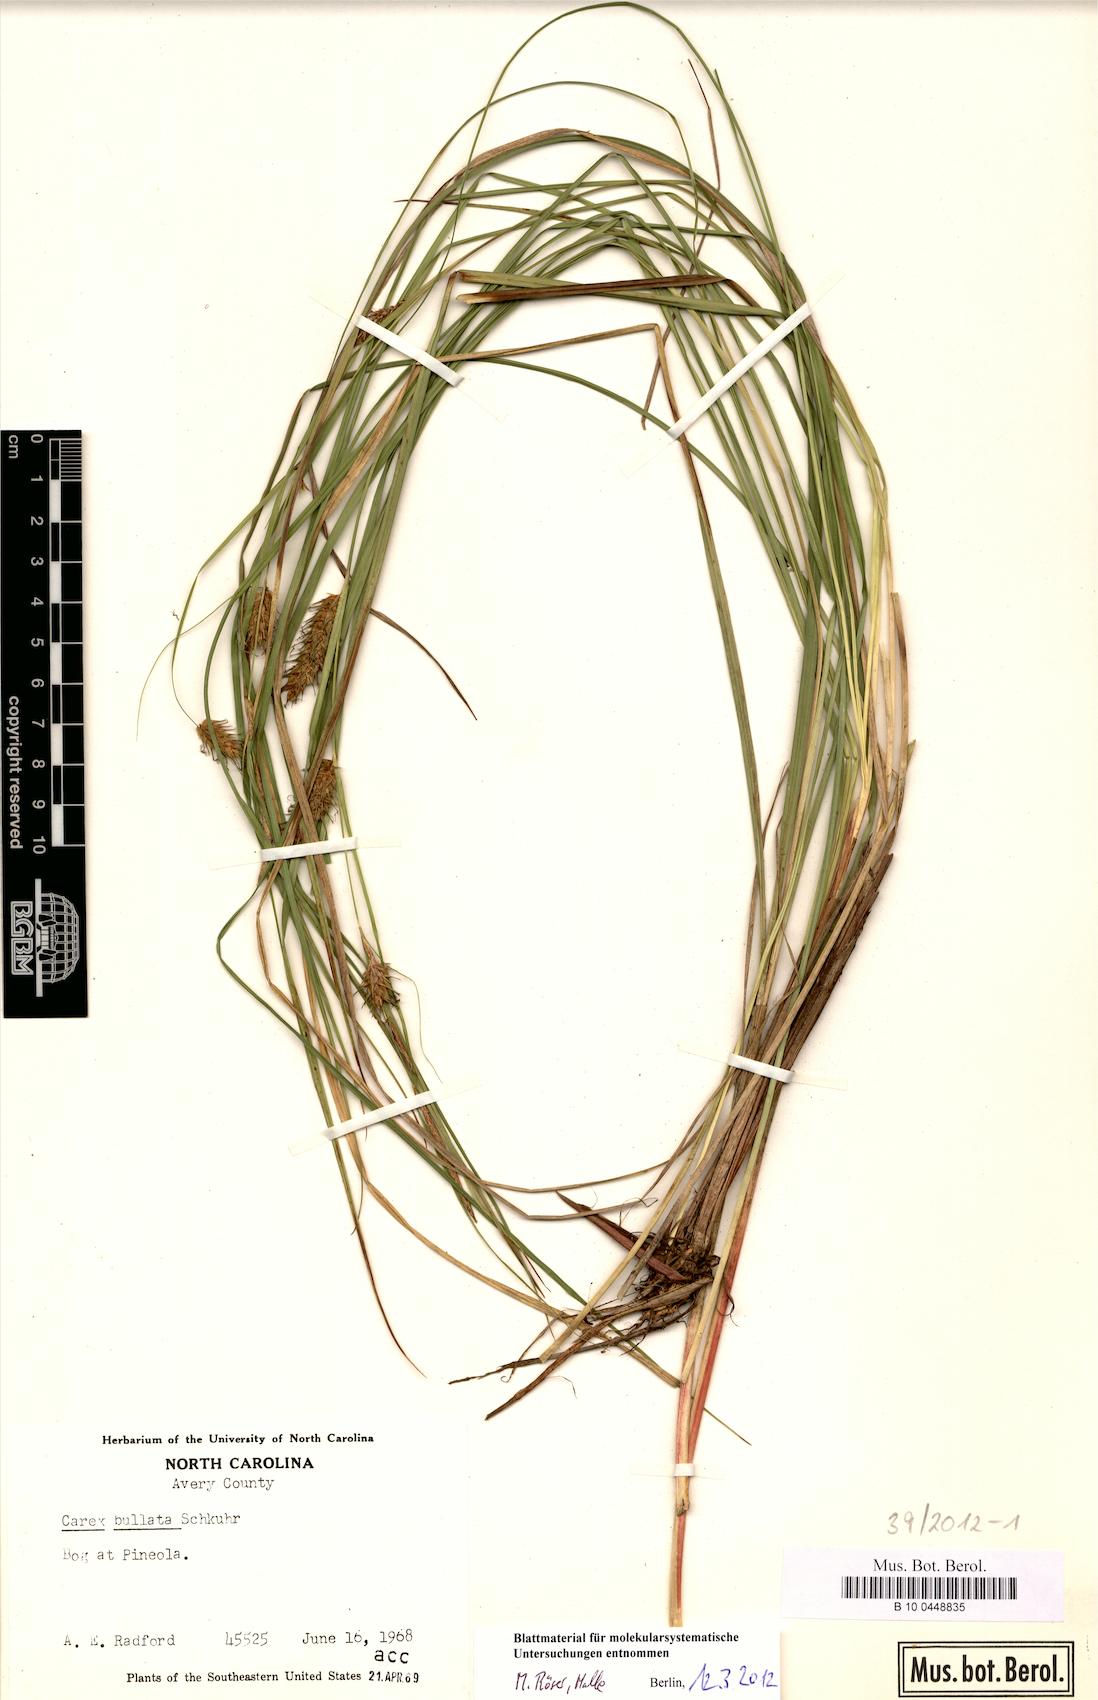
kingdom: Plantae
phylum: Tracheophyta
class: Liliopsida
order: Poales
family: Cyperaceae
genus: Carex
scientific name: Carex bullata
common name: Button sedge
